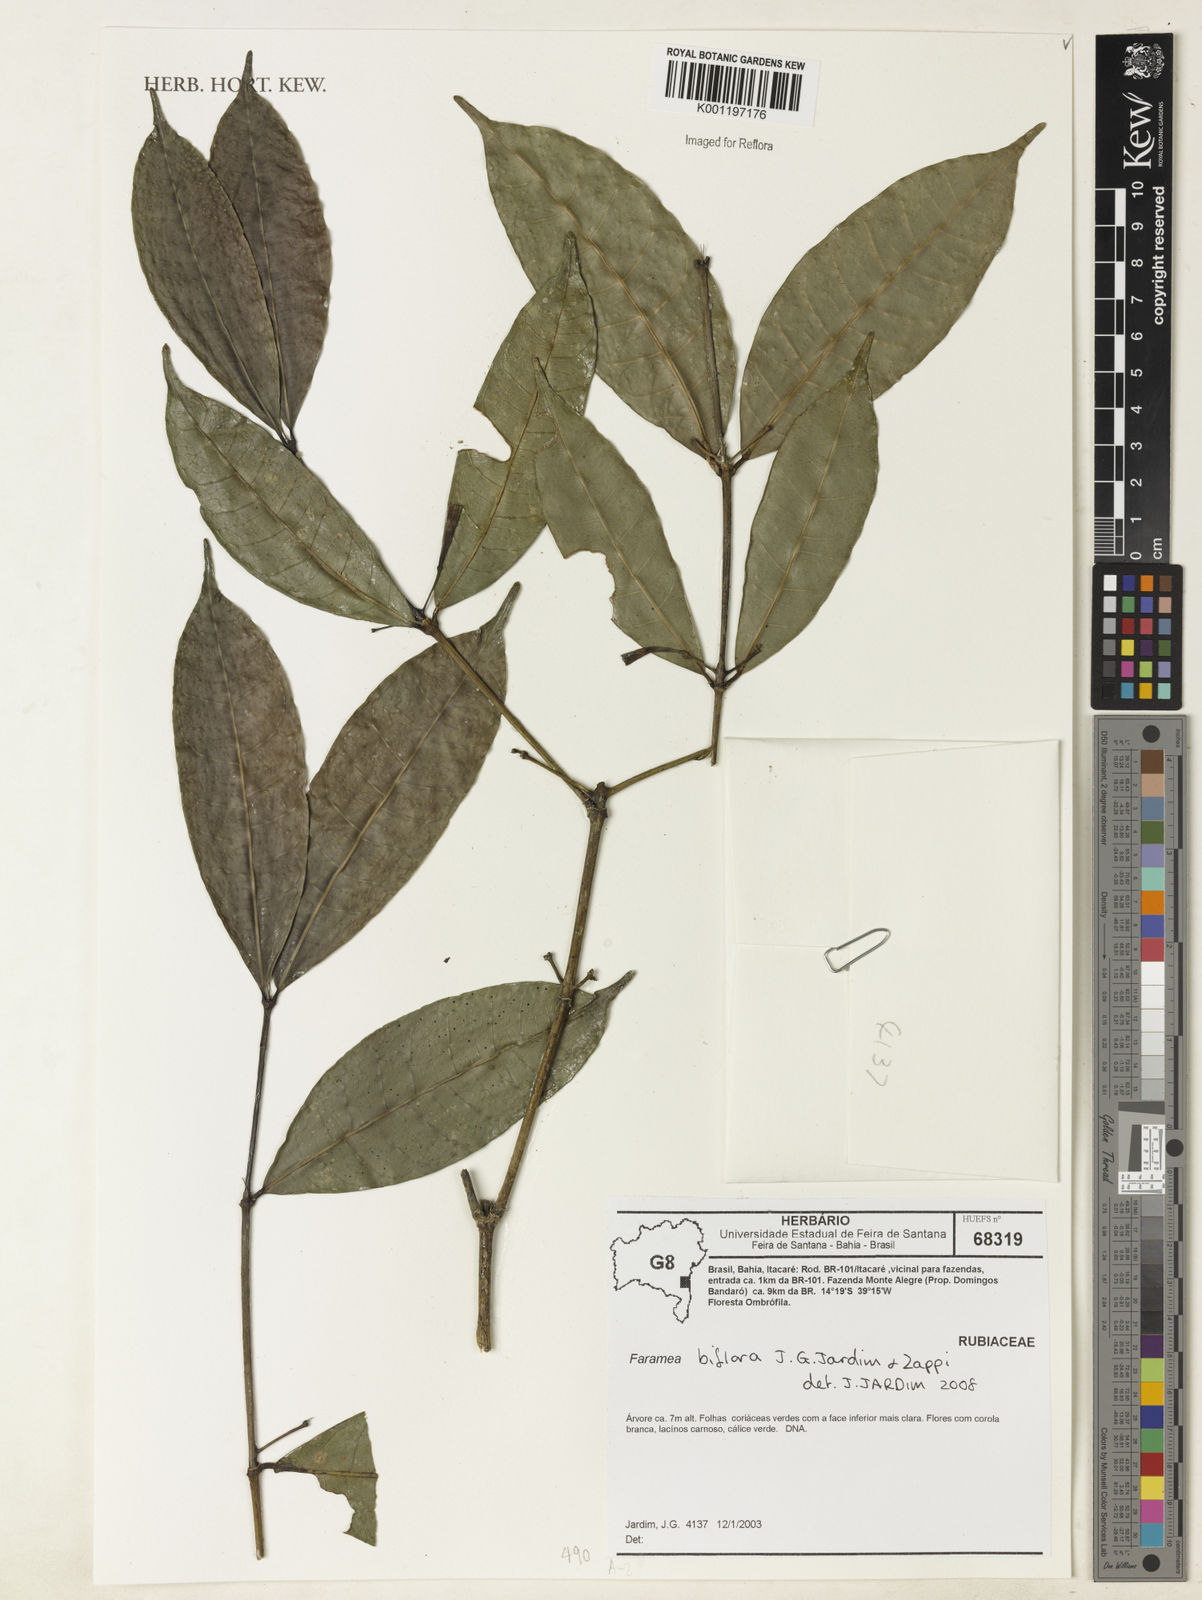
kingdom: Plantae
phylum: Tracheophyta
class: Magnoliopsida
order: Gentianales
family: Rubiaceae
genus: Faramea
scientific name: Faramea biflora
